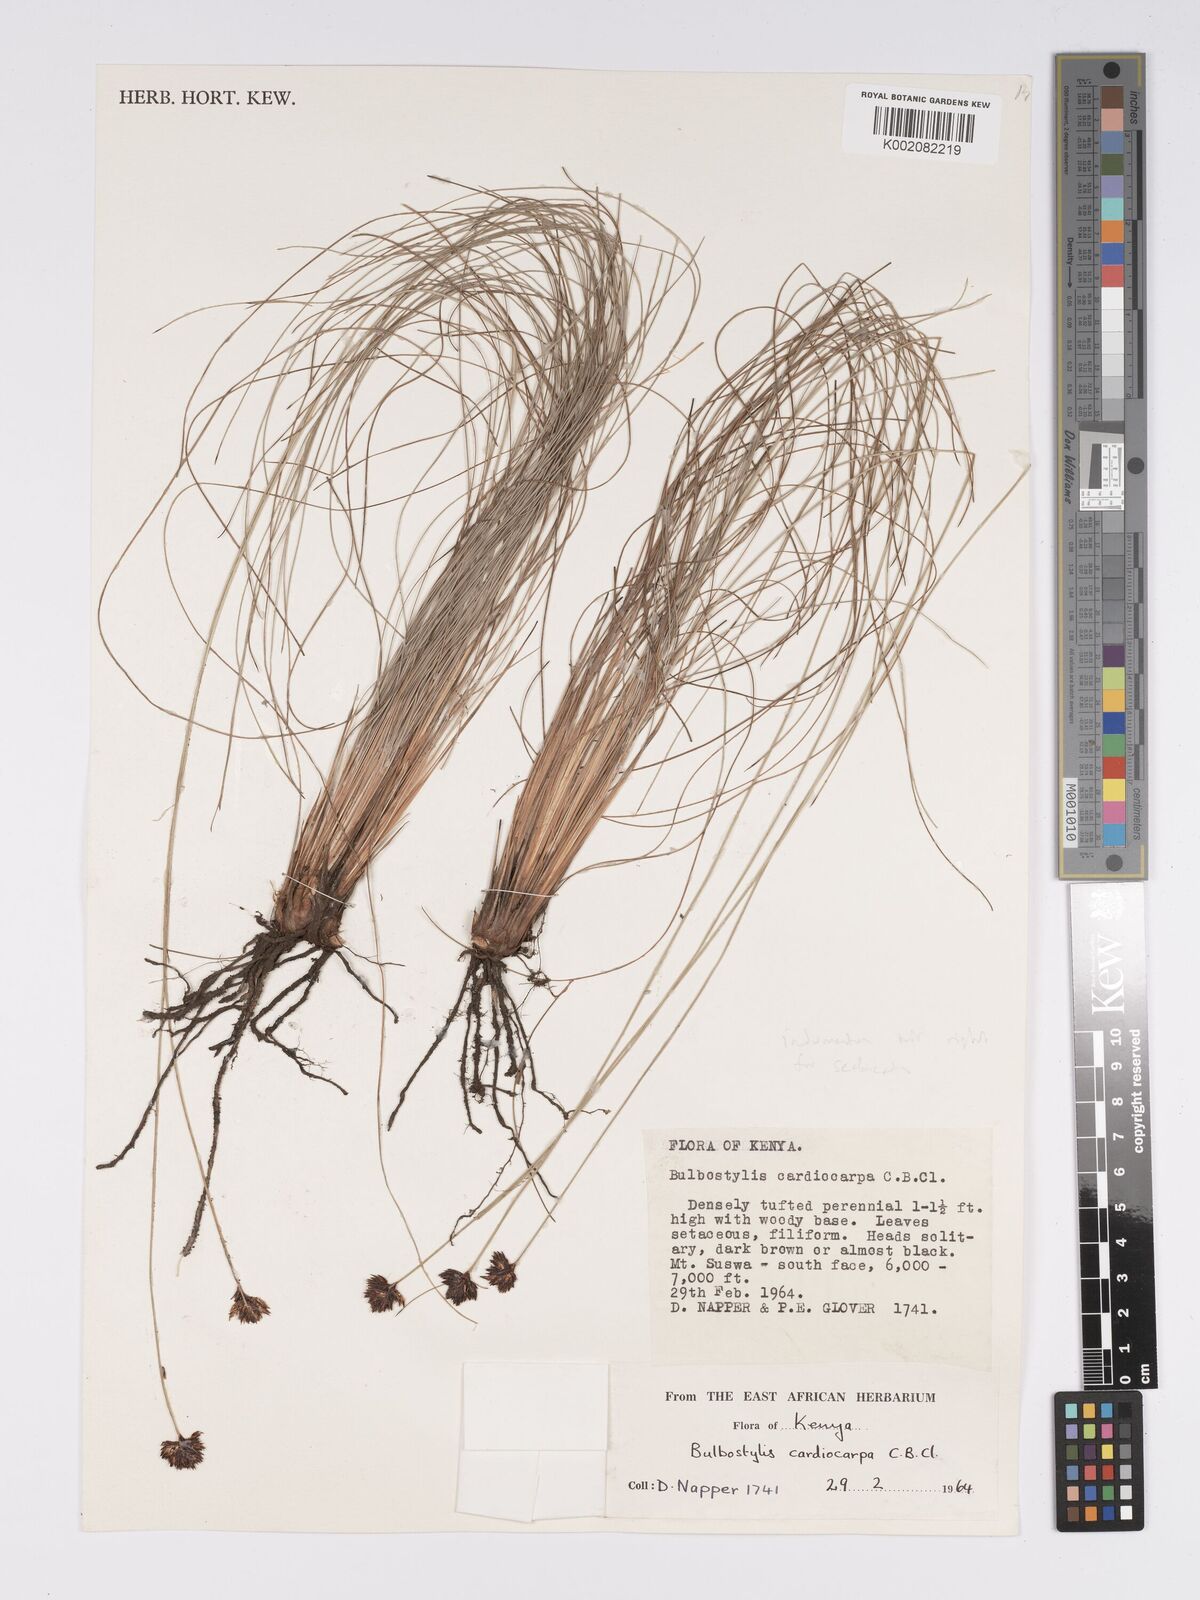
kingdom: Plantae
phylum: Tracheophyta
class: Liliopsida
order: Poales
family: Cyperaceae
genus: Bulbostylis
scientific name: Bulbostylis scabricaulis
